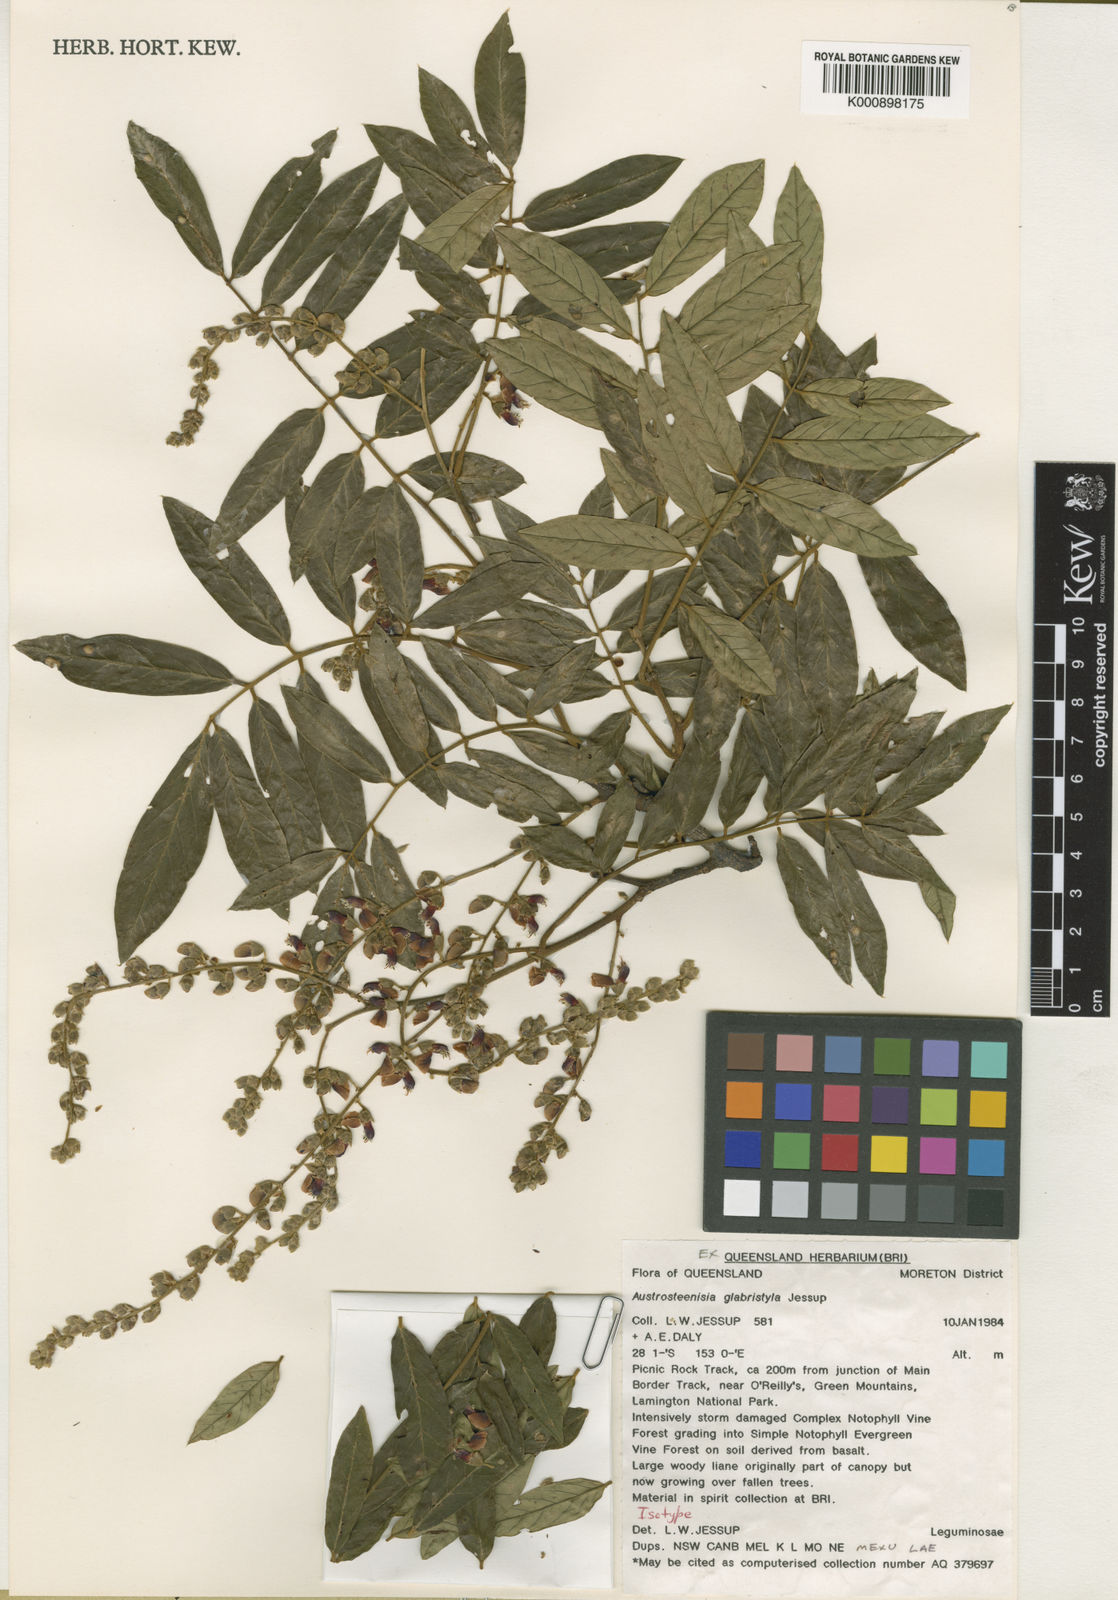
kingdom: Plantae
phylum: Tracheophyta
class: Magnoliopsida
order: Fabales
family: Fabaceae
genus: Austrosteenisia
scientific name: Austrosteenisia glabristyla
